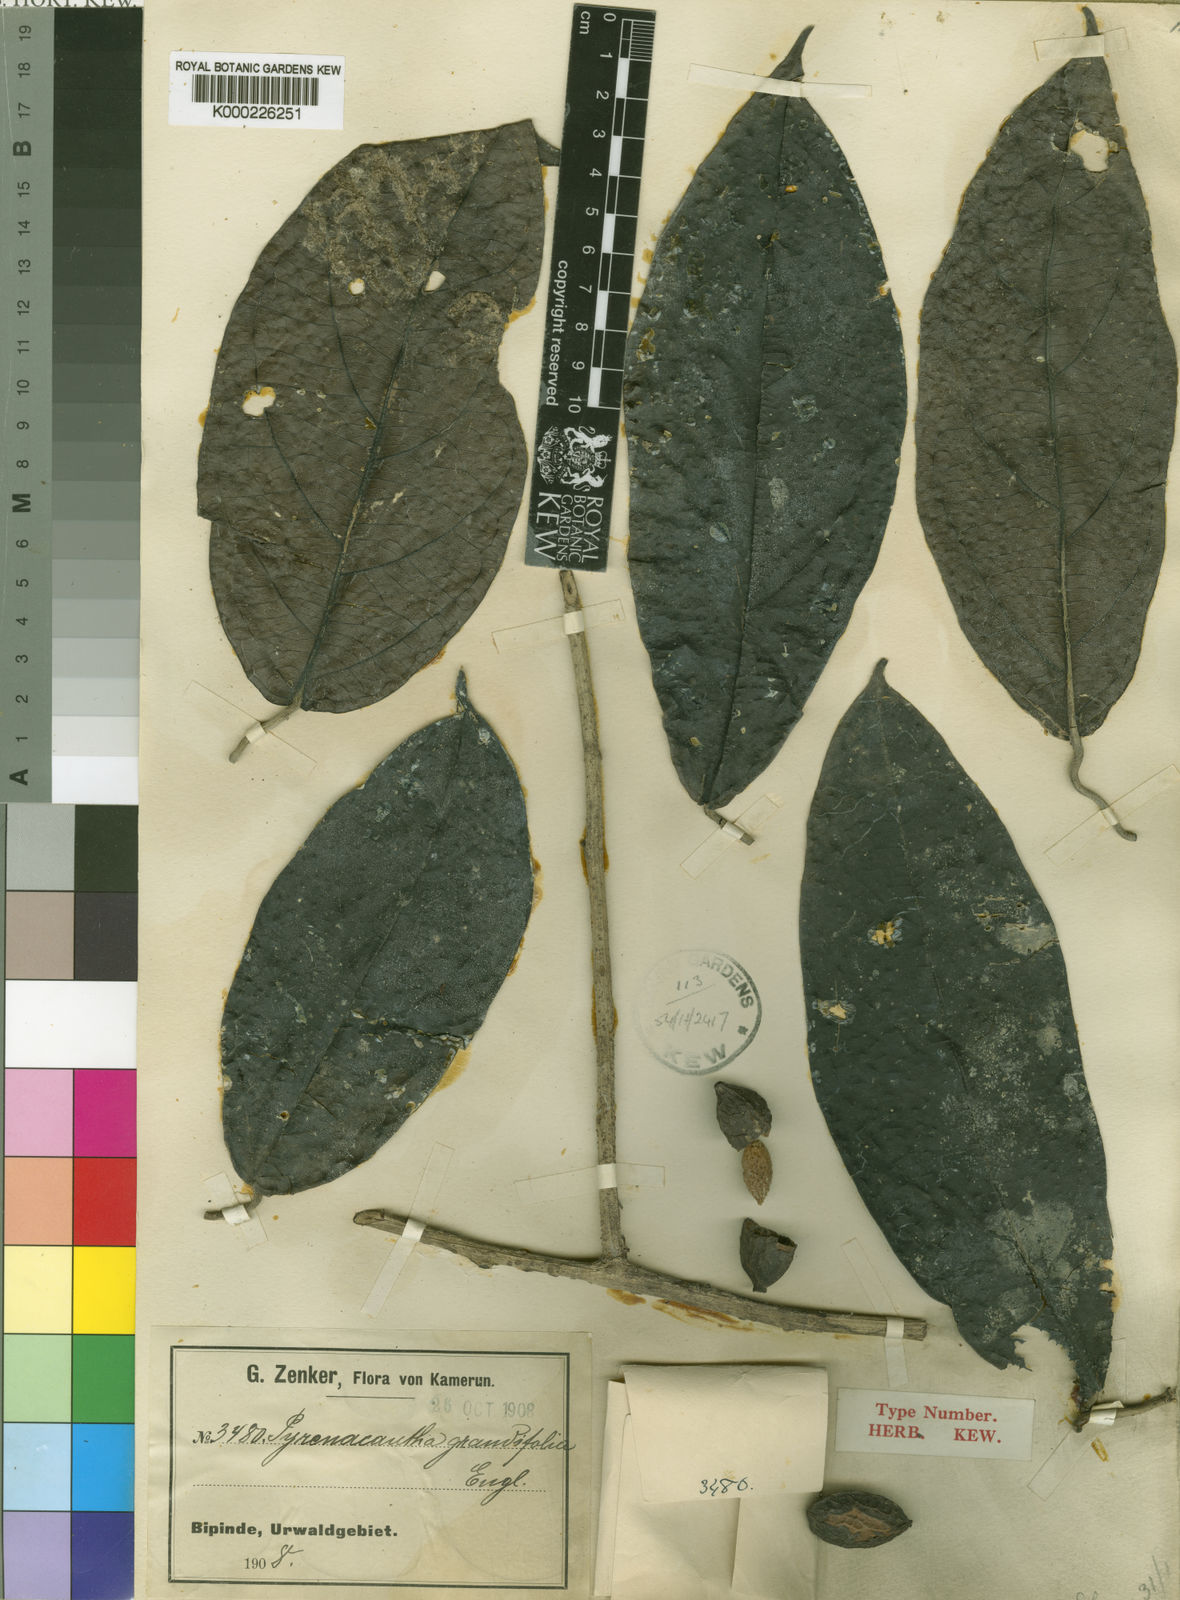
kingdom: Plantae
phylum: Tracheophyta
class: Magnoliopsida
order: Icacinales
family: Icacinaceae
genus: Pyrenacantha
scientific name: Pyrenacantha grandifolia
